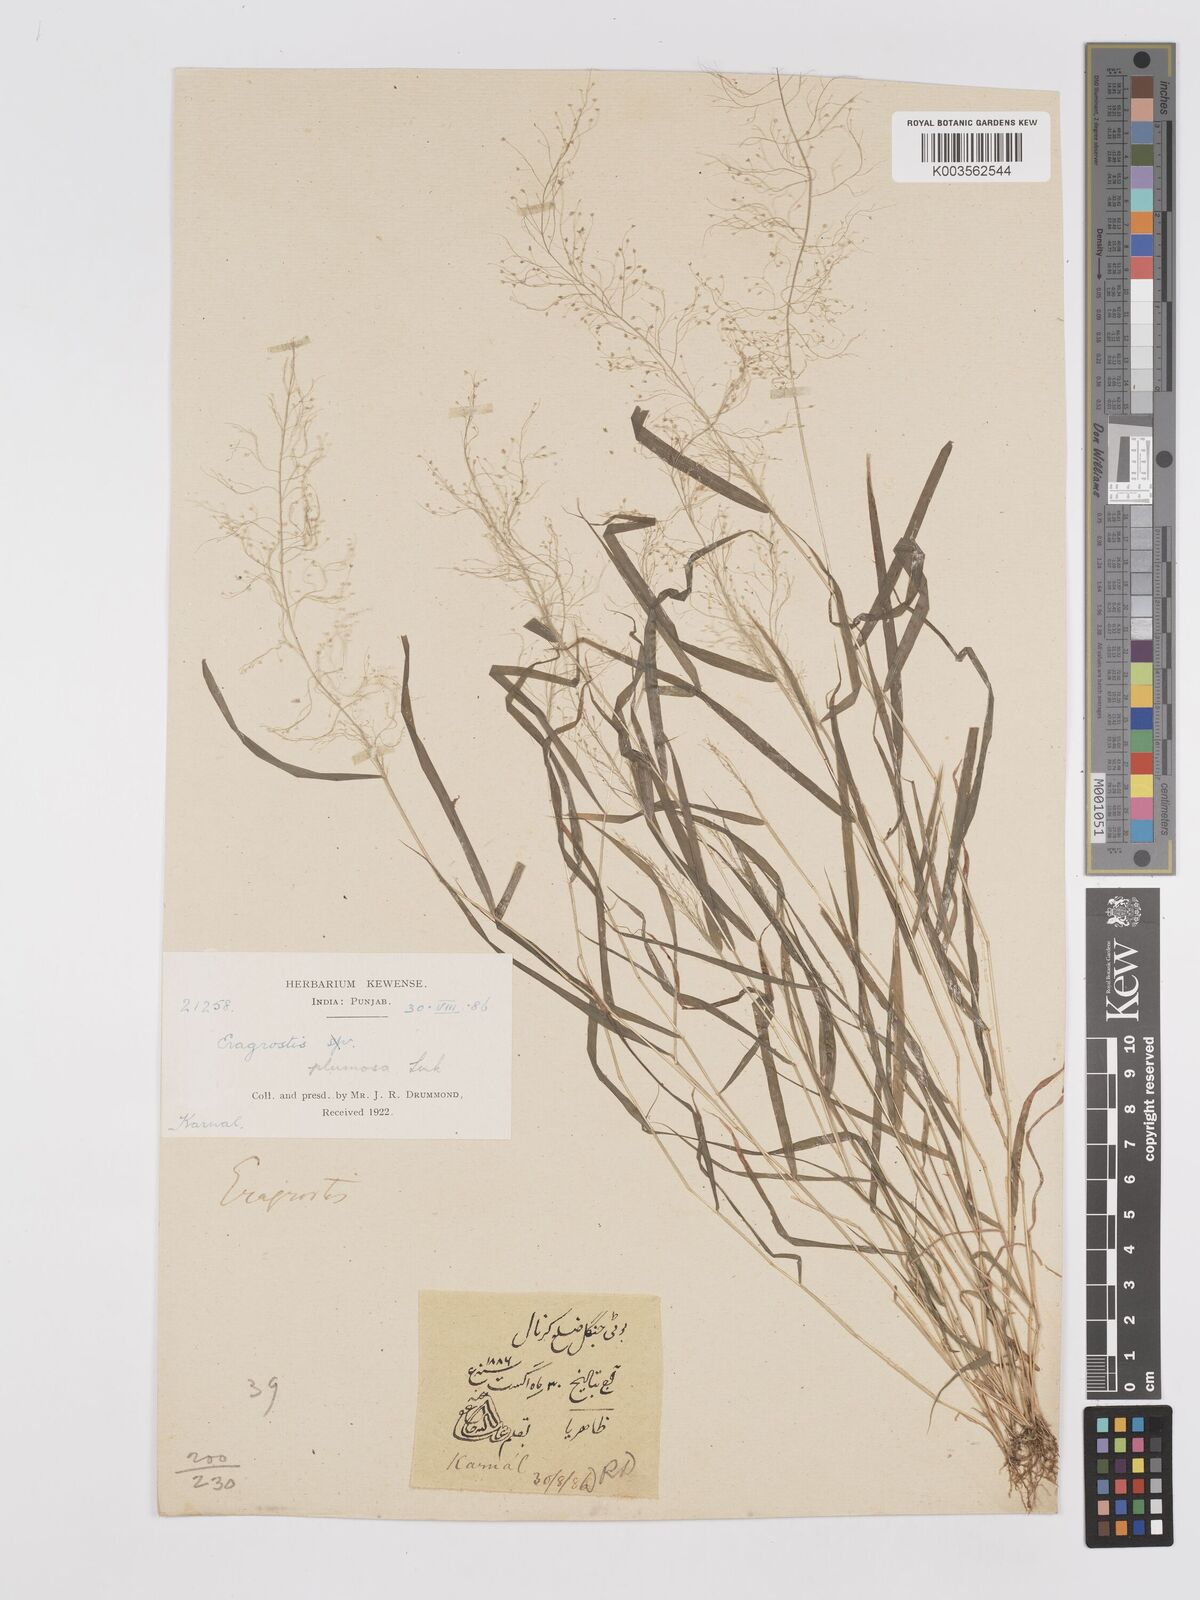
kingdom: Plantae
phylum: Tracheophyta
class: Liliopsida
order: Poales
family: Poaceae
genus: Eragrostis
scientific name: Eragrostis tenella
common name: Japanese lovegrass
